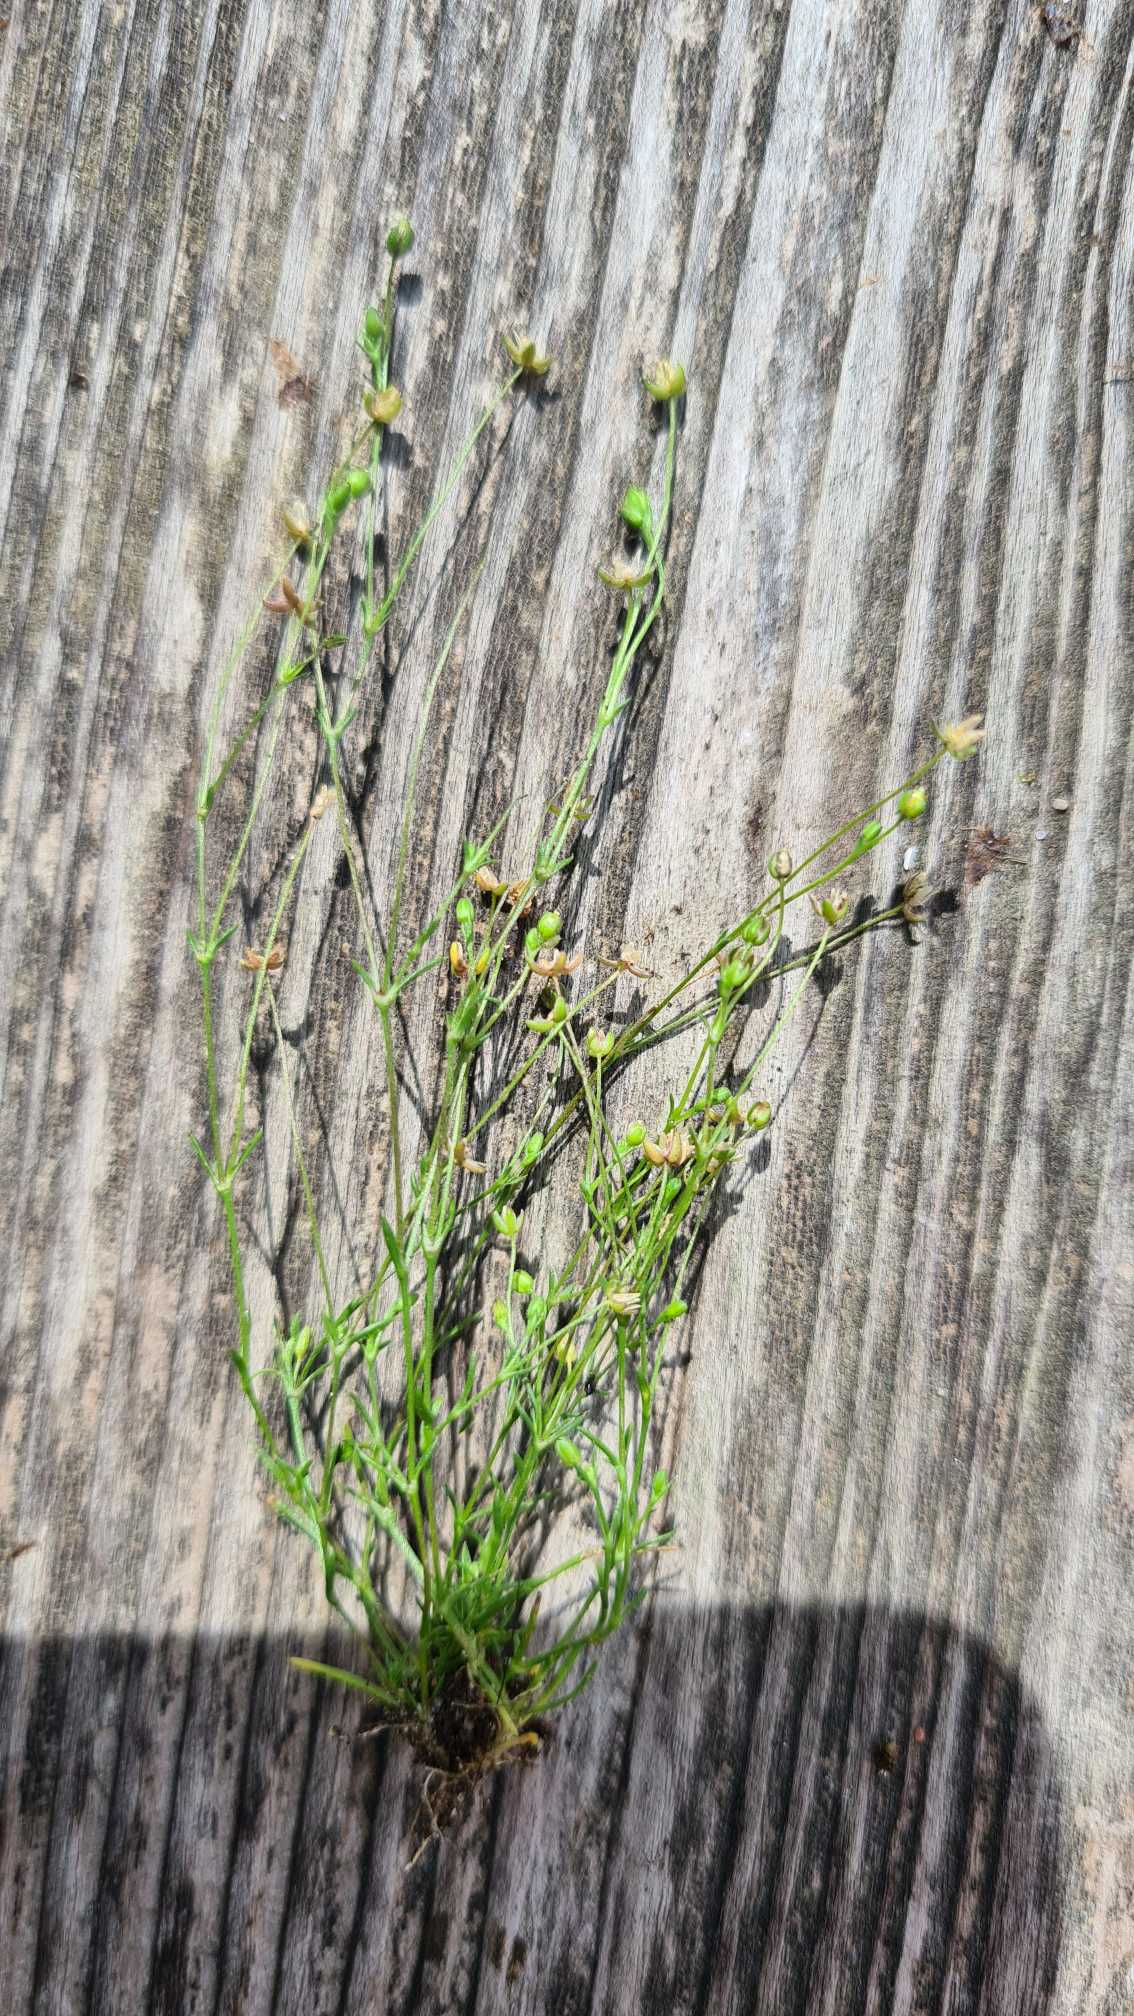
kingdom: Plantae
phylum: Tracheophyta
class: Magnoliopsida
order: Caryophyllales
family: Caryophyllaceae
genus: Sagina
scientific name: Sagina apetala
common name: Kronløs firling
